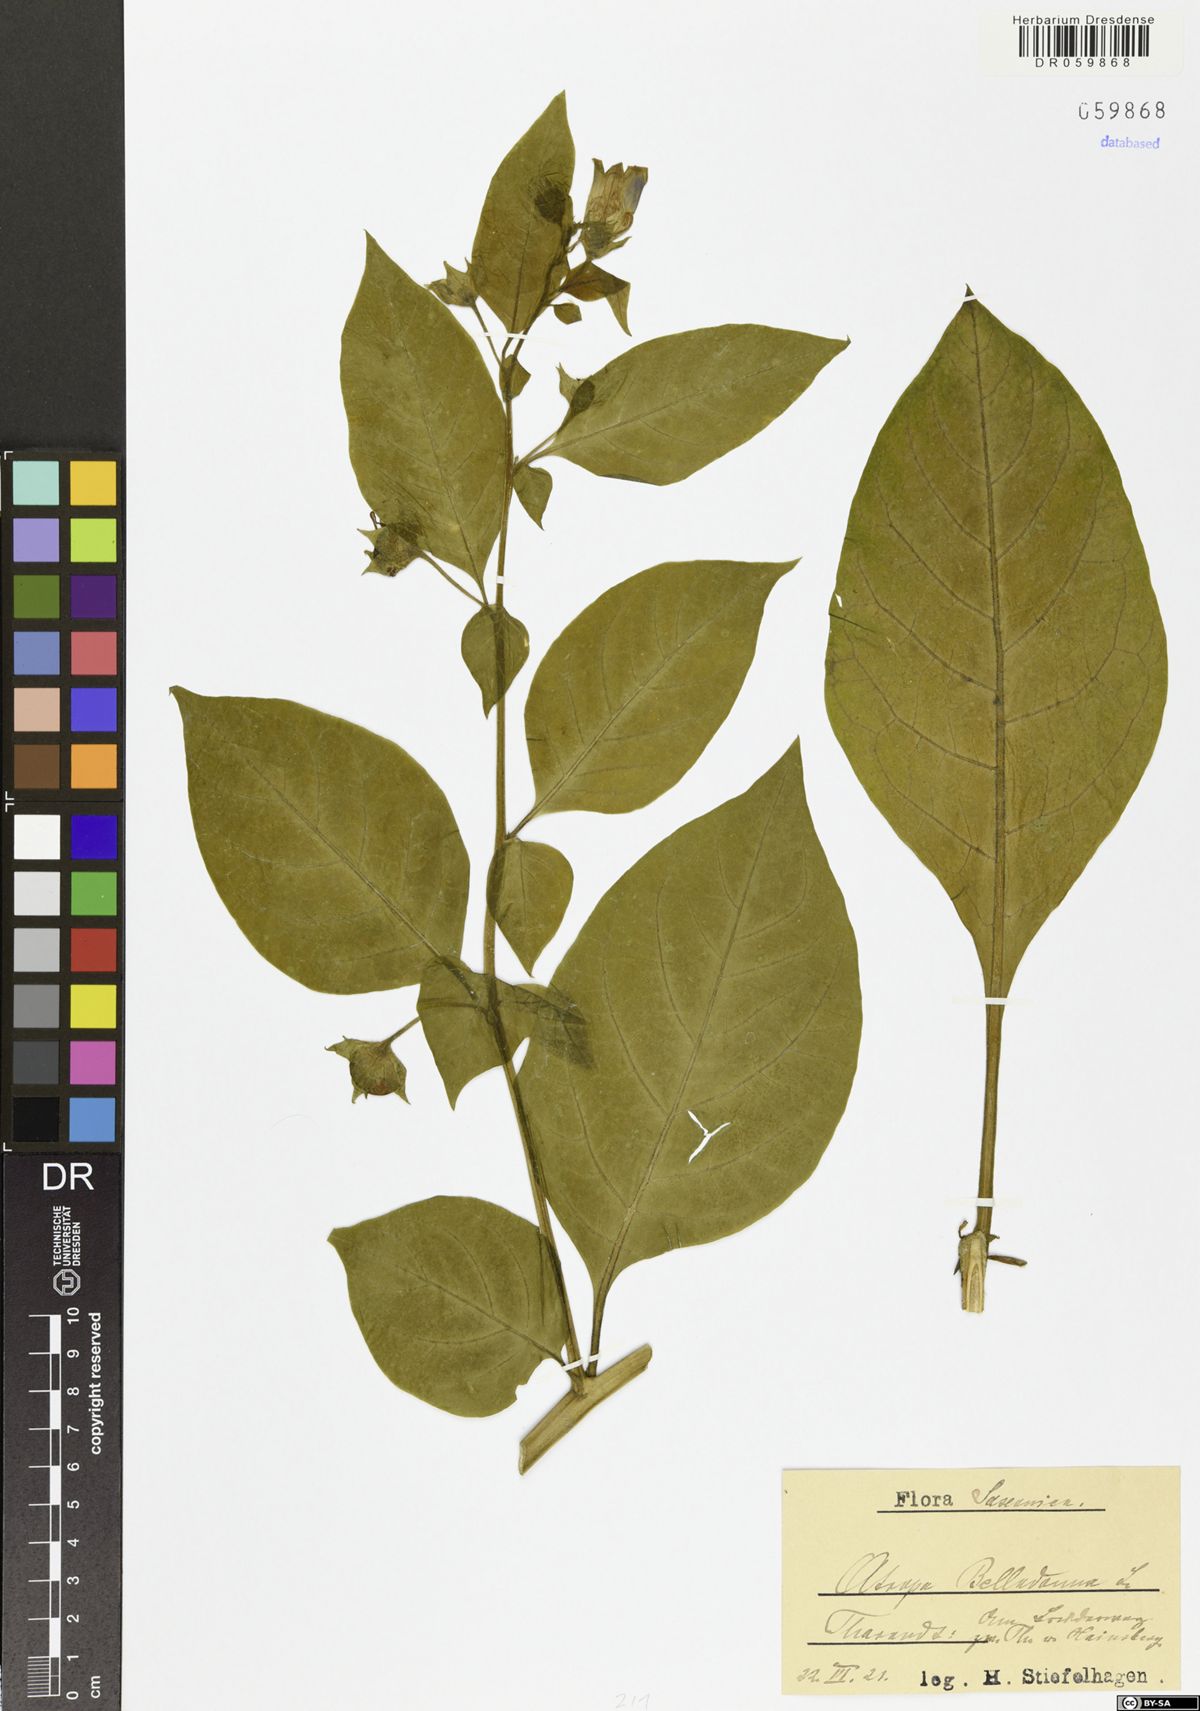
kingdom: Plantae
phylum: Tracheophyta
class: Magnoliopsida
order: Solanales
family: Solanaceae
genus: Atropa
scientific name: Atropa belladonna
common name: Deadly nightshade
